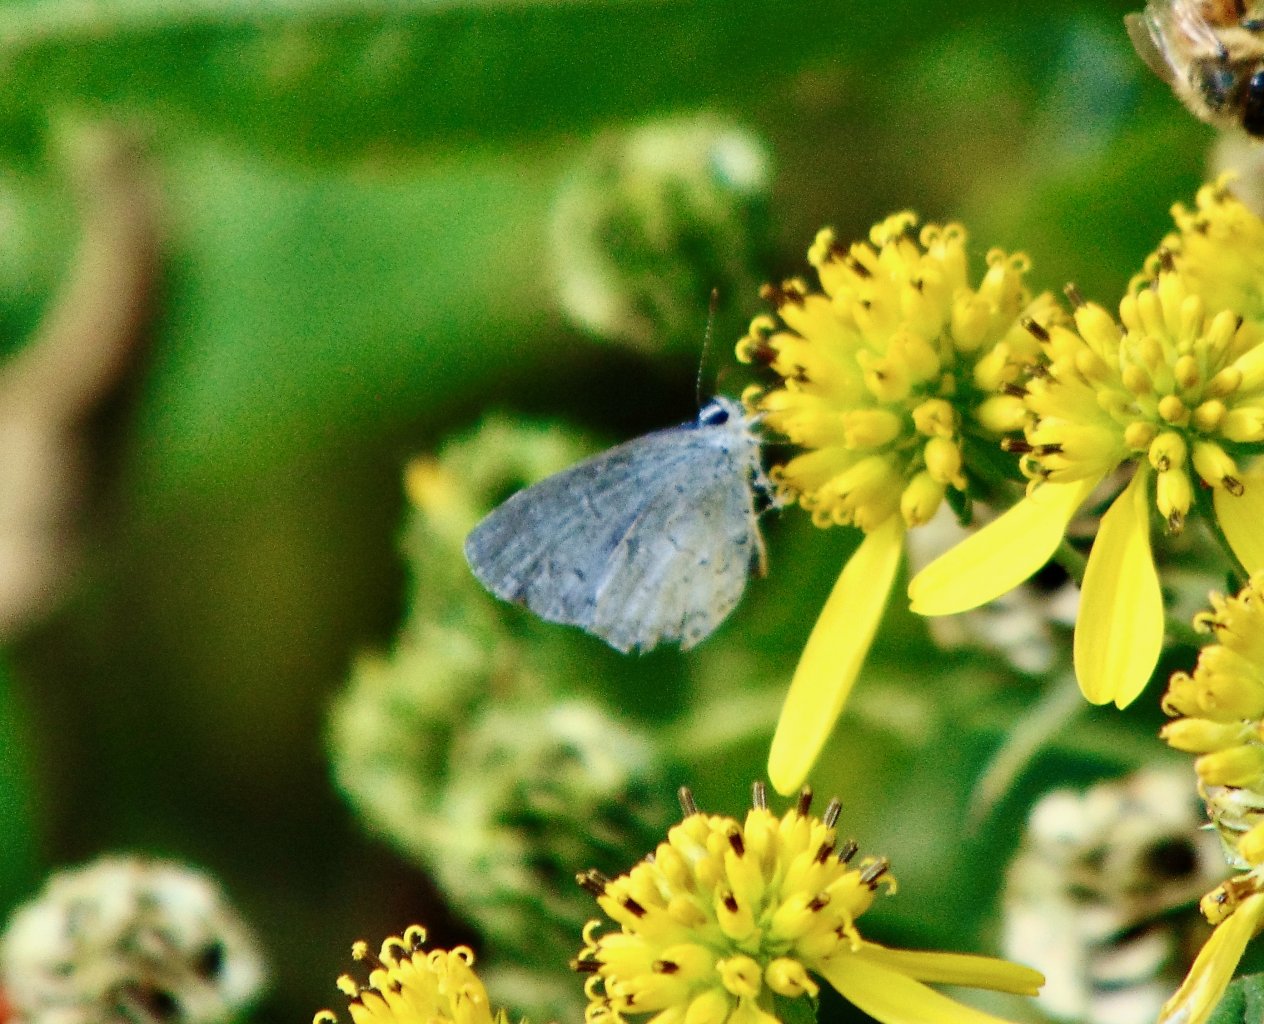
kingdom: Animalia
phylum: Arthropoda
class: Insecta
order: Lepidoptera
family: Lycaenidae
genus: Cyaniris
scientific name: Cyaniris neglecta
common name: Summer Azure
